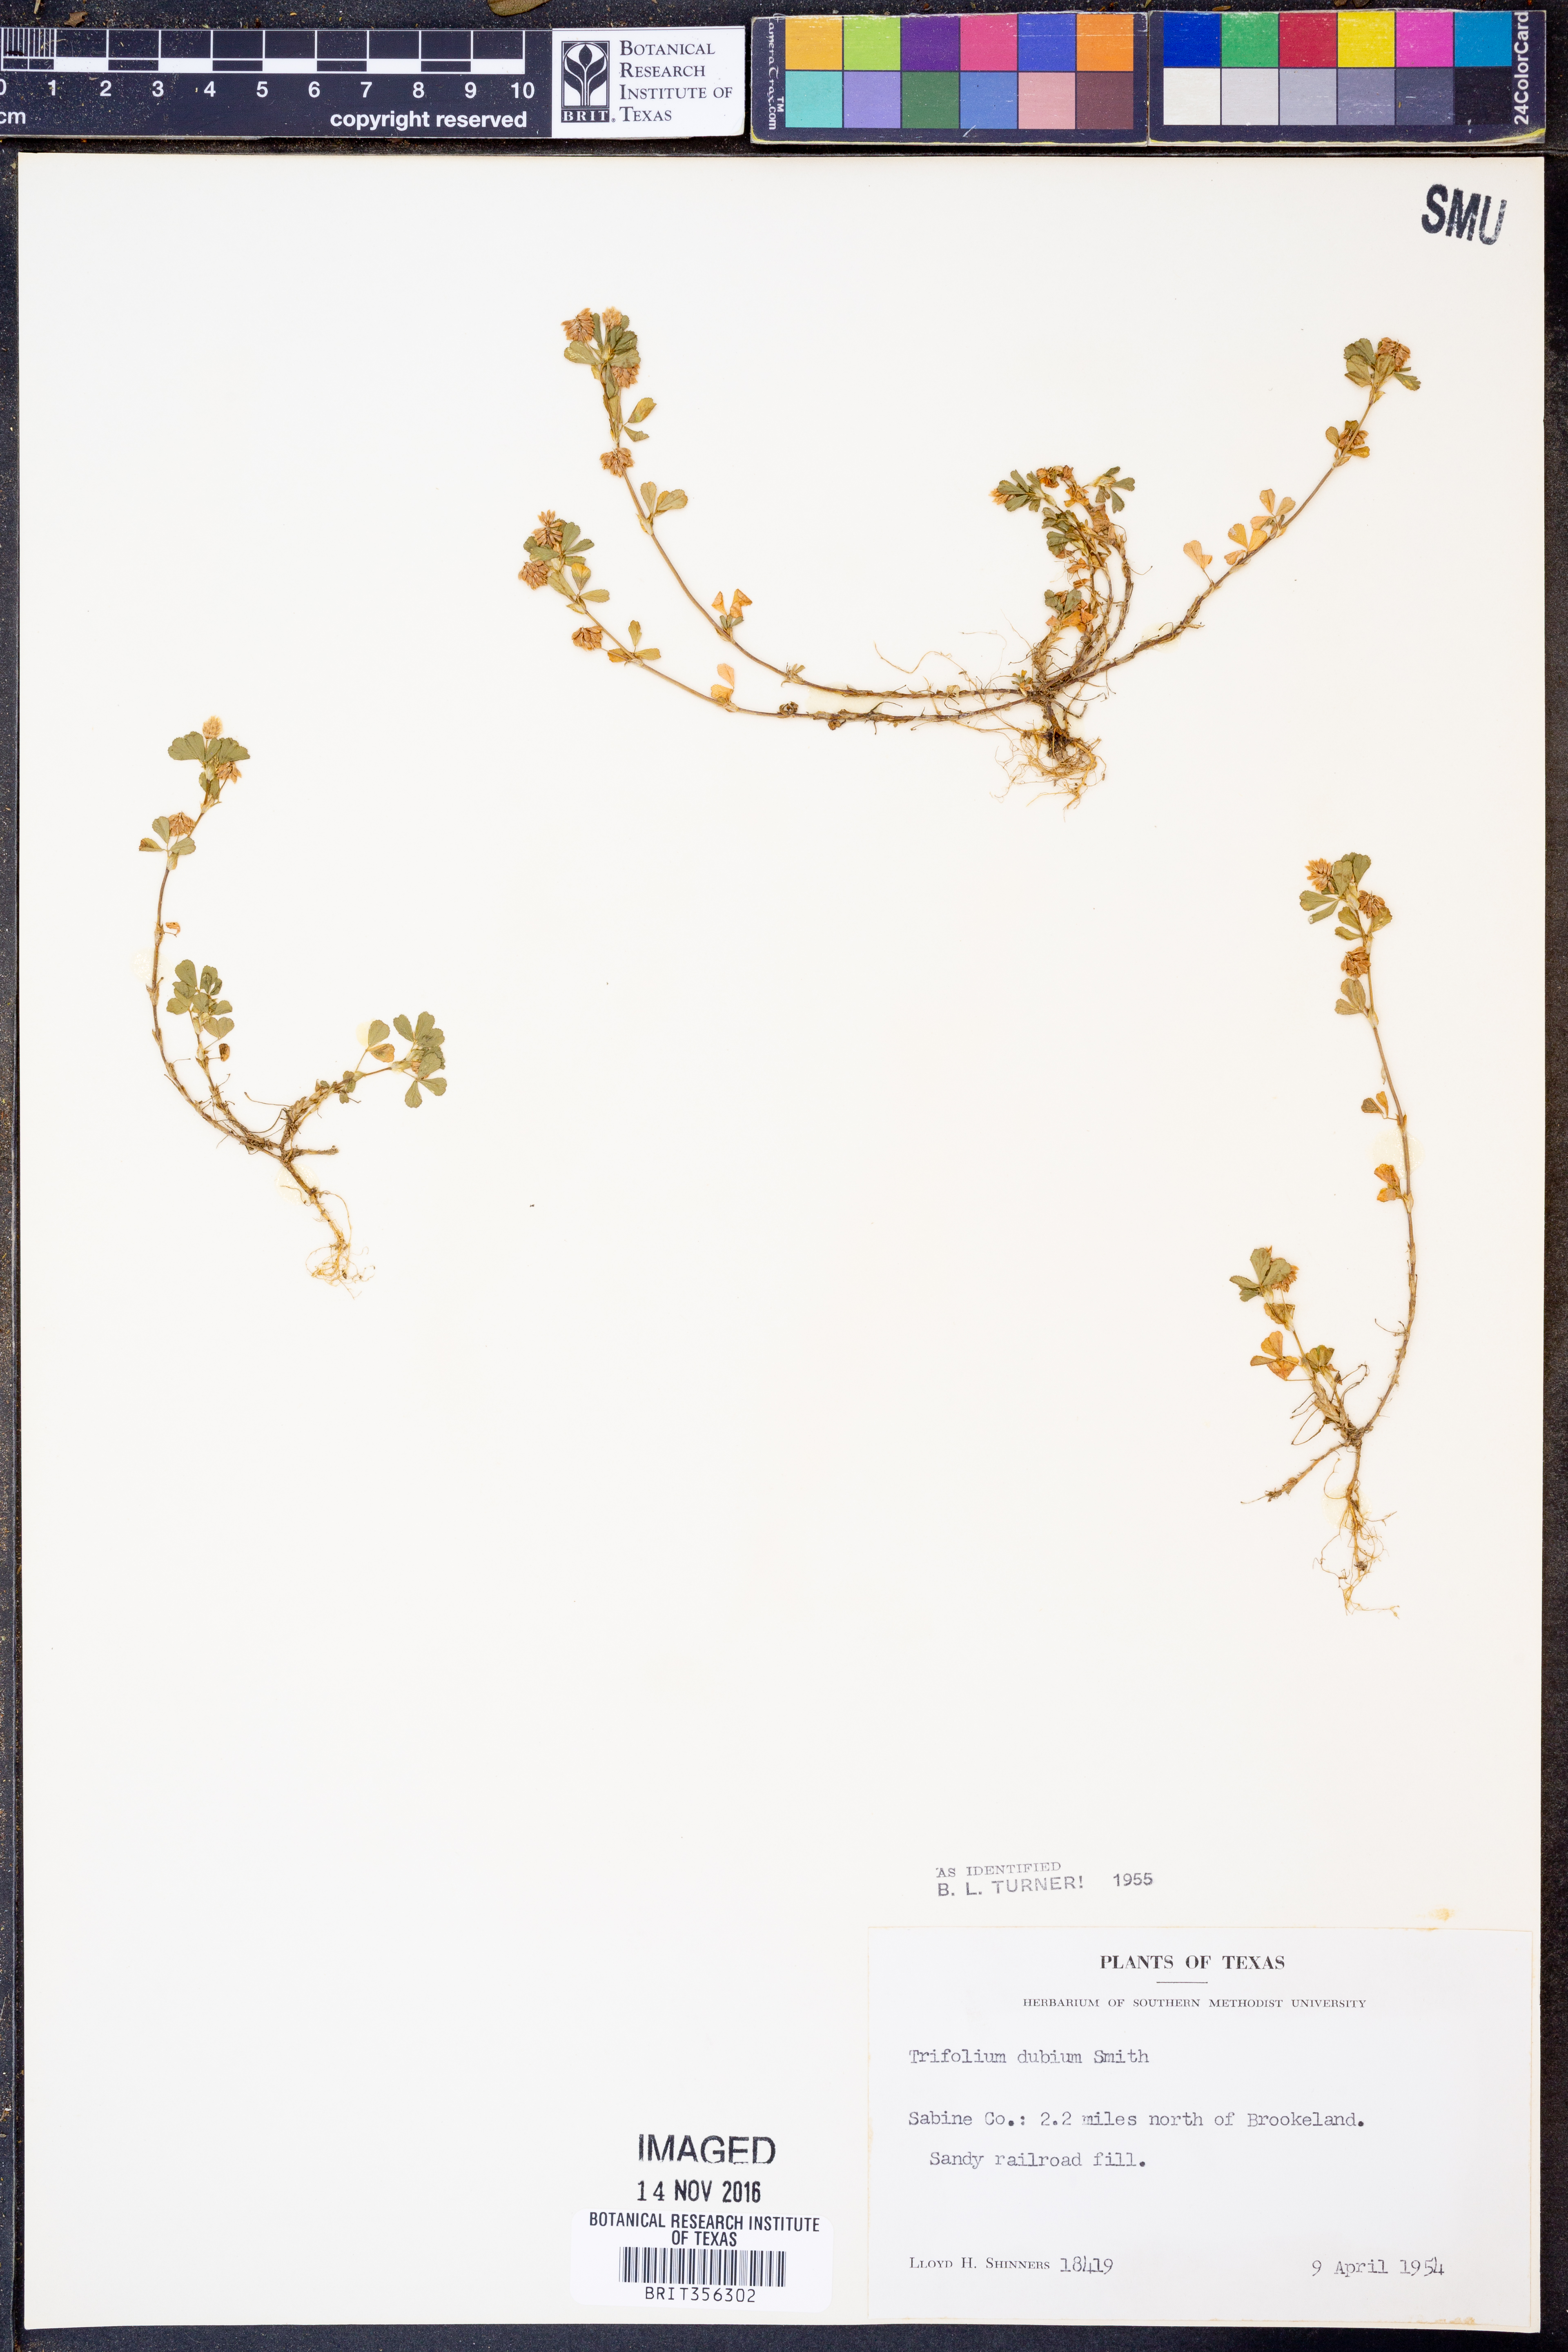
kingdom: Plantae
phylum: Tracheophyta
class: Magnoliopsida
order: Fabales
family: Fabaceae
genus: Trifolium
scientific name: Trifolium dubium
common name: Suckling clover
